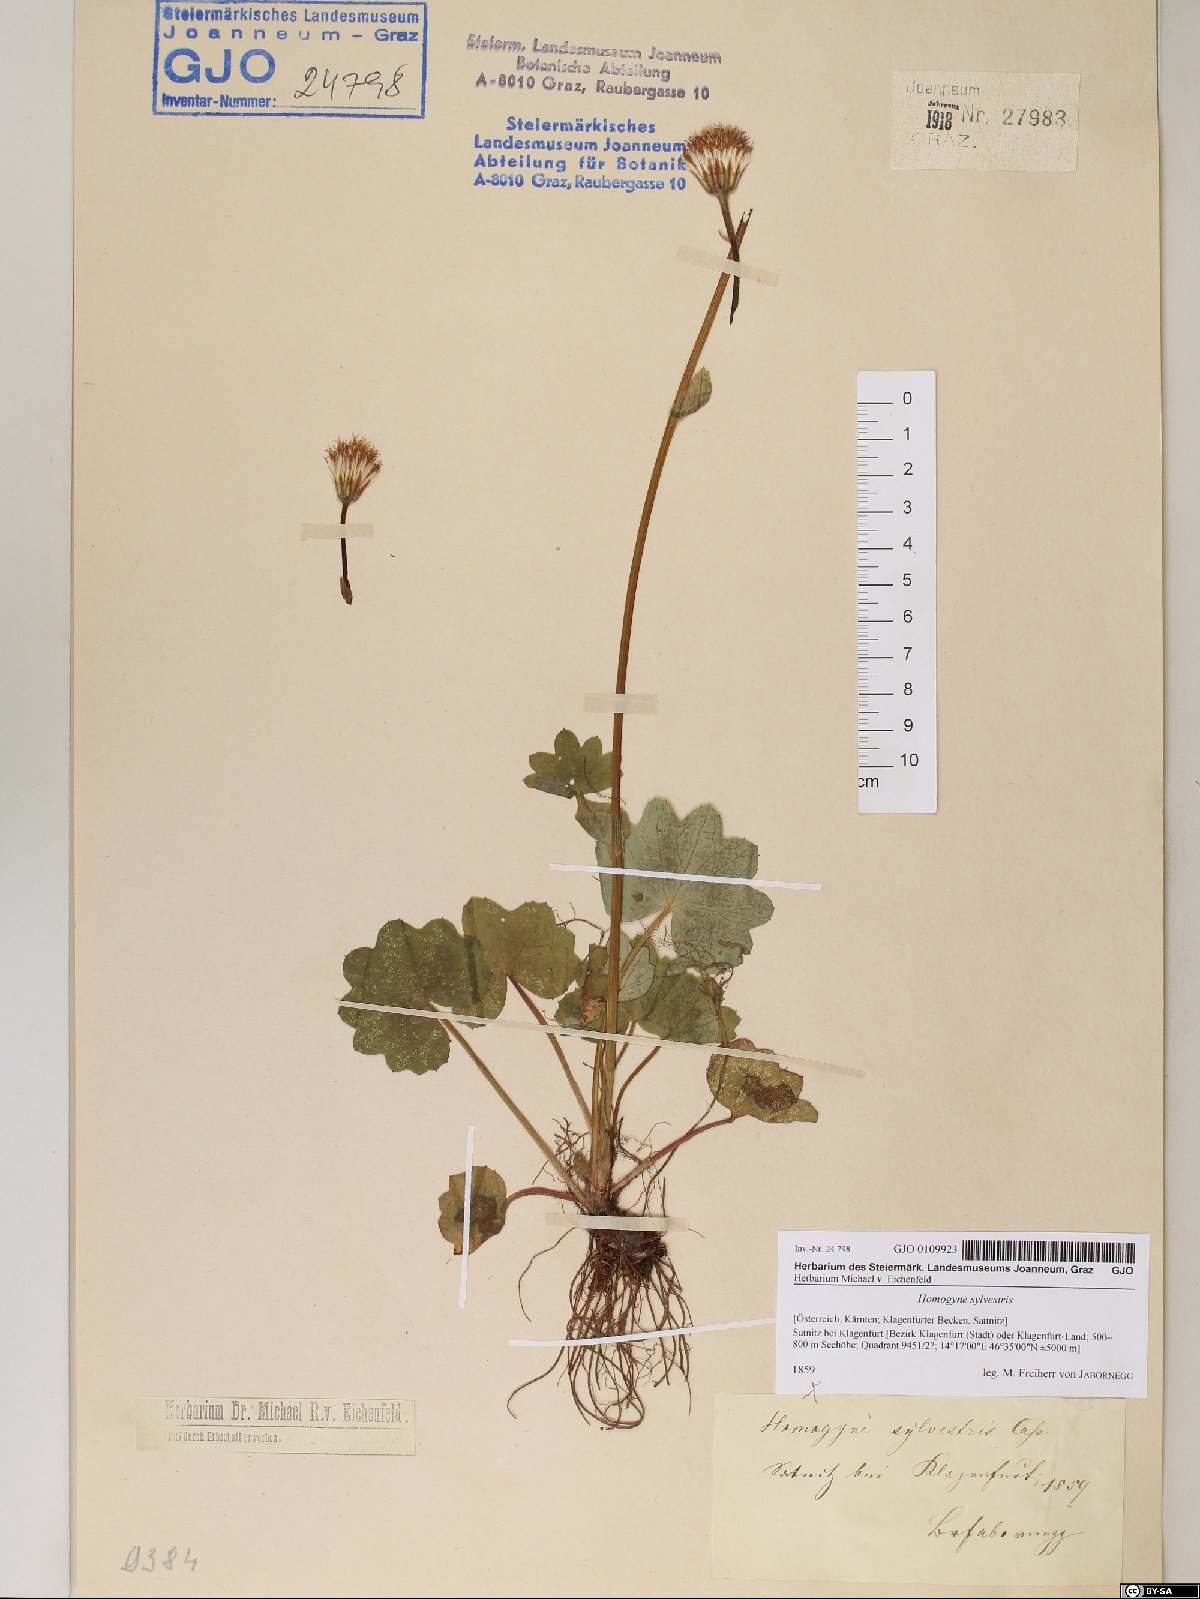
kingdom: Plantae
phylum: Tracheophyta
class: Magnoliopsida
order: Asterales
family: Asteraceae
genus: Homogyne
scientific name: Homogyne sylvestris
